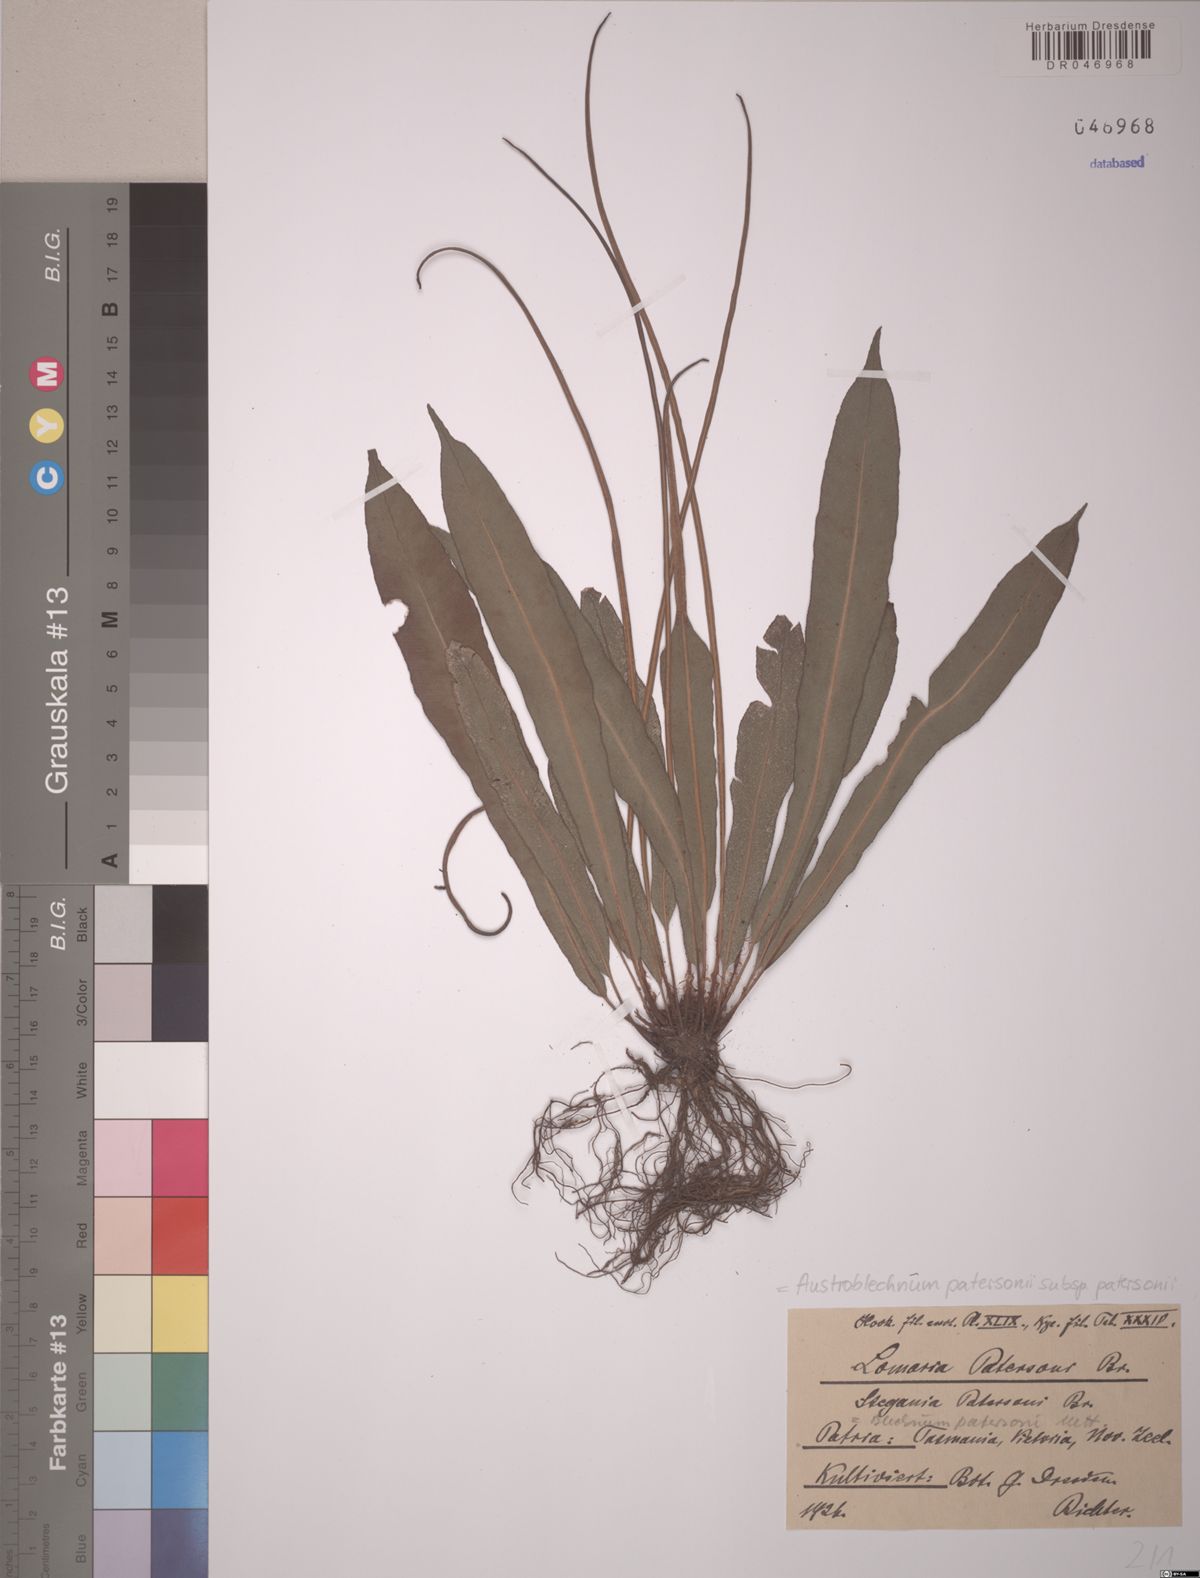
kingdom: Plantae
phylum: Tracheophyta
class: Polypodiopsida
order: Polypodiales
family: Blechnaceae
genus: Austroblechnum
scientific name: Austroblechnum patersonii
